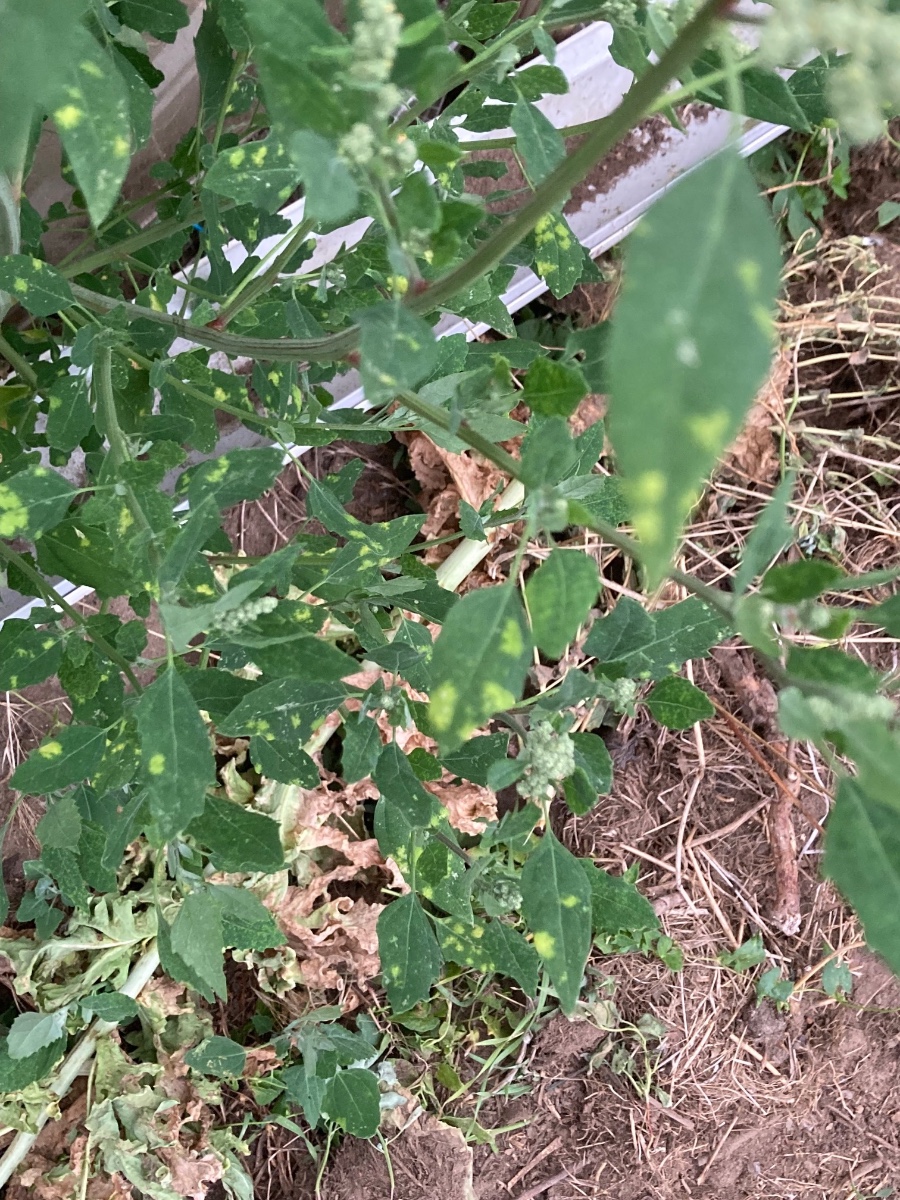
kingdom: Chromista
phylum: Oomycota
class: Peronosporea
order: Peronosporales
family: Peronosporaceae
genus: Peronospora
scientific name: Peronospora farinosa
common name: Beet downy mildew
